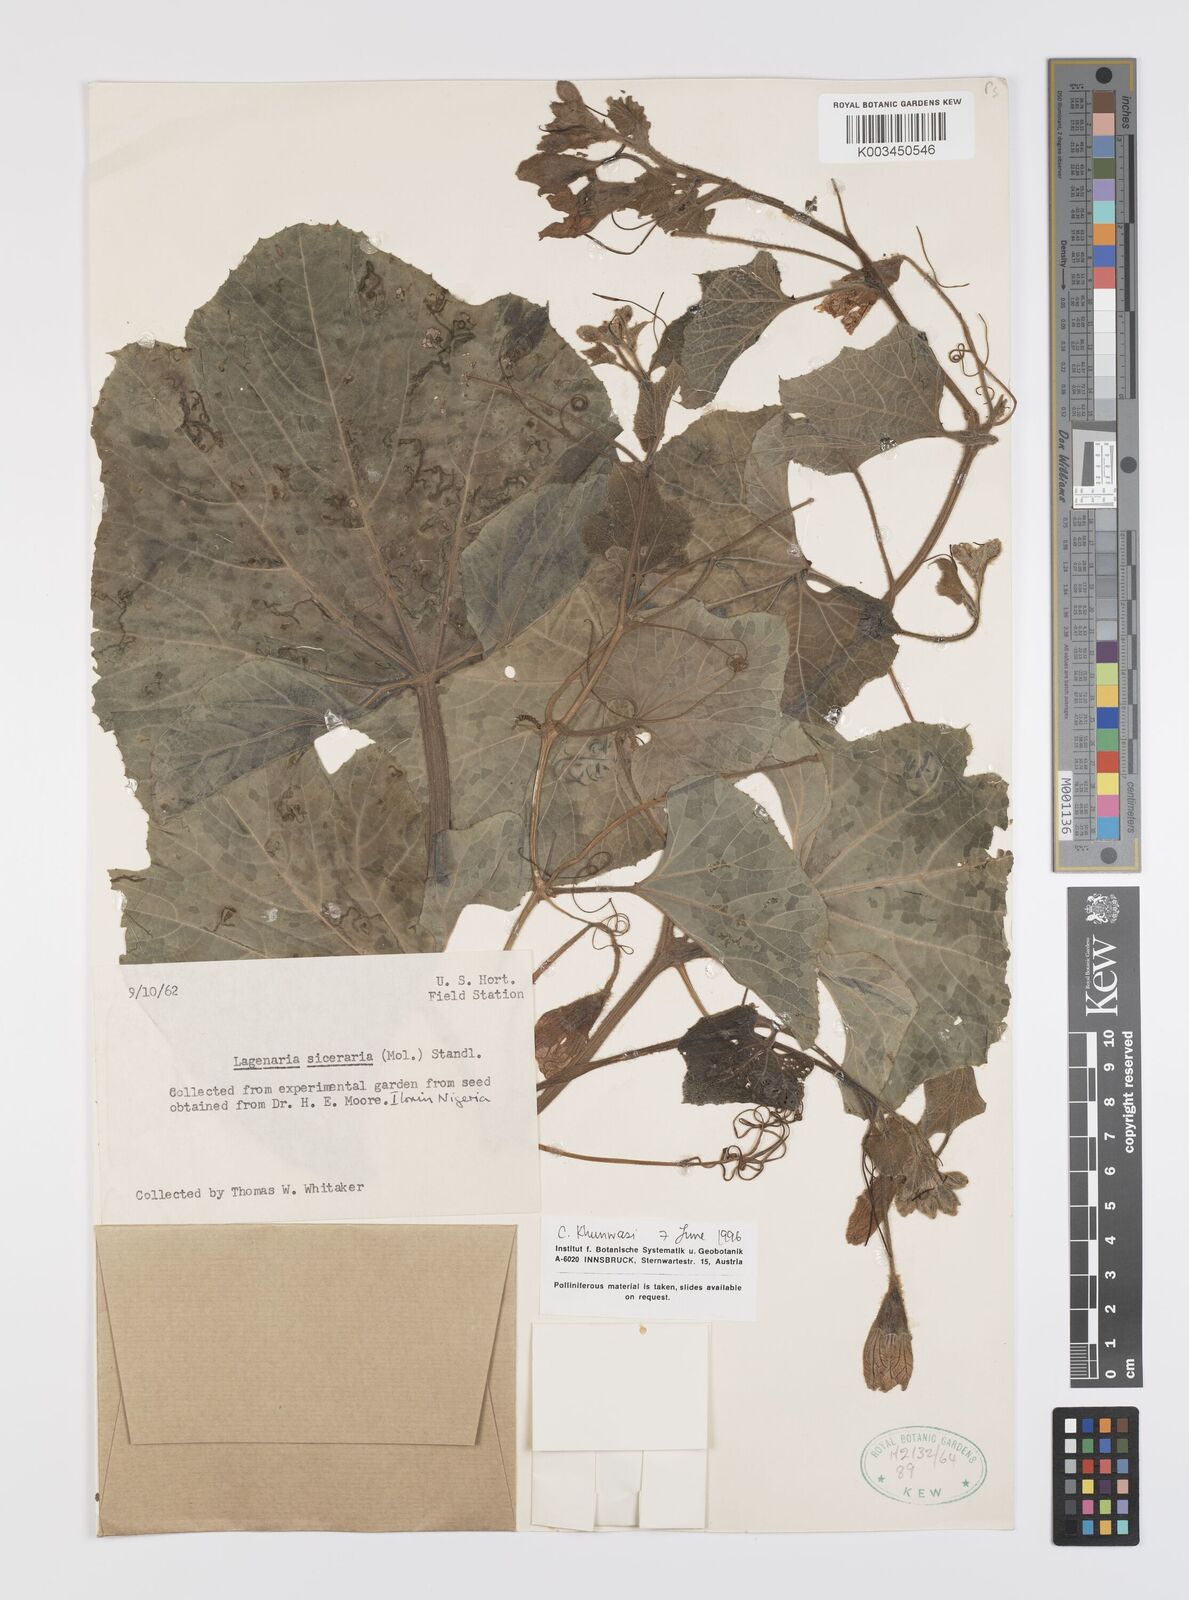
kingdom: Plantae
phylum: Tracheophyta
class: Magnoliopsida
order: Cucurbitales
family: Cucurbitaceae
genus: Lagenaria
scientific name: Lagenaria siceraria
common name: Bottle gourd
